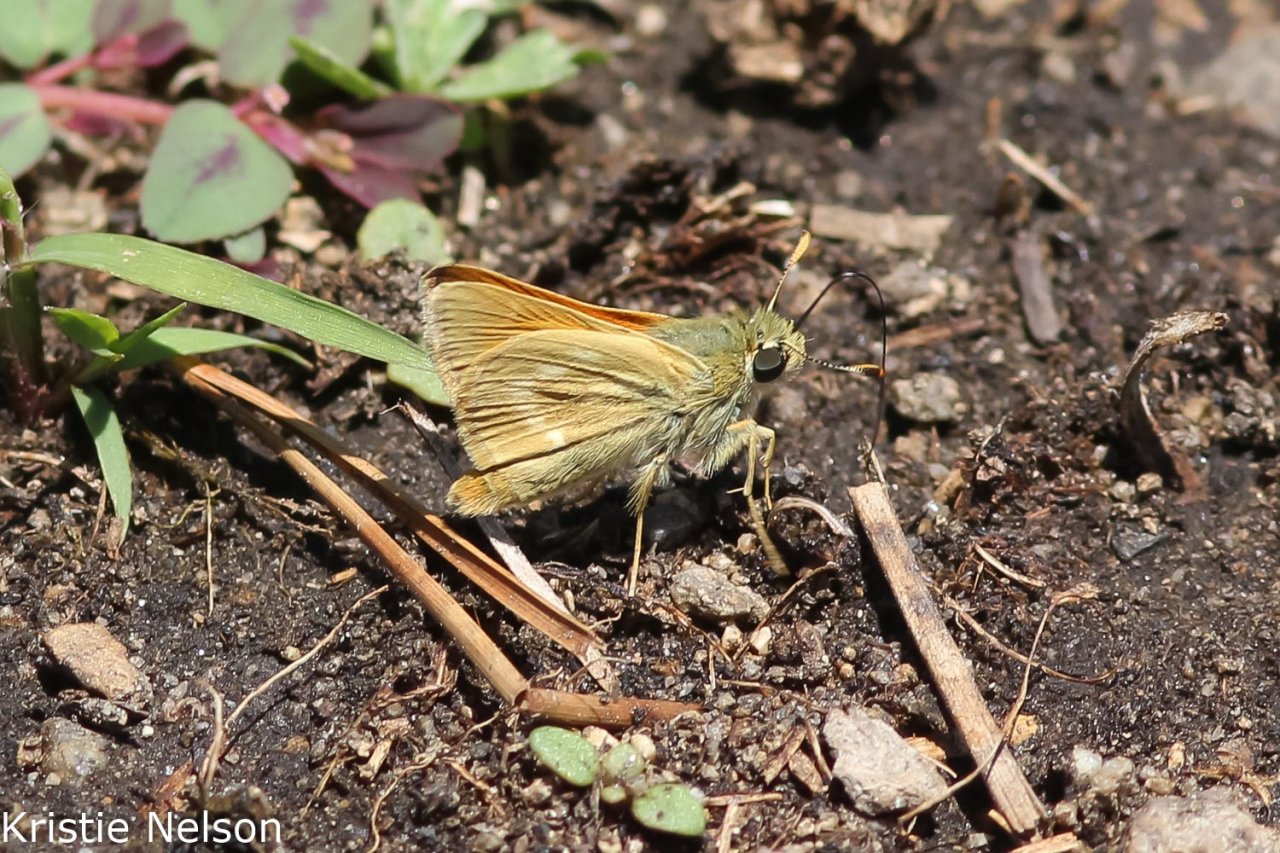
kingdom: Animalia
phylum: Arthropoda
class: Insecta
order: Lepidoptera
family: Hesperiidae
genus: Polites
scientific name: Polites mystic
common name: Sonoran Skipper
